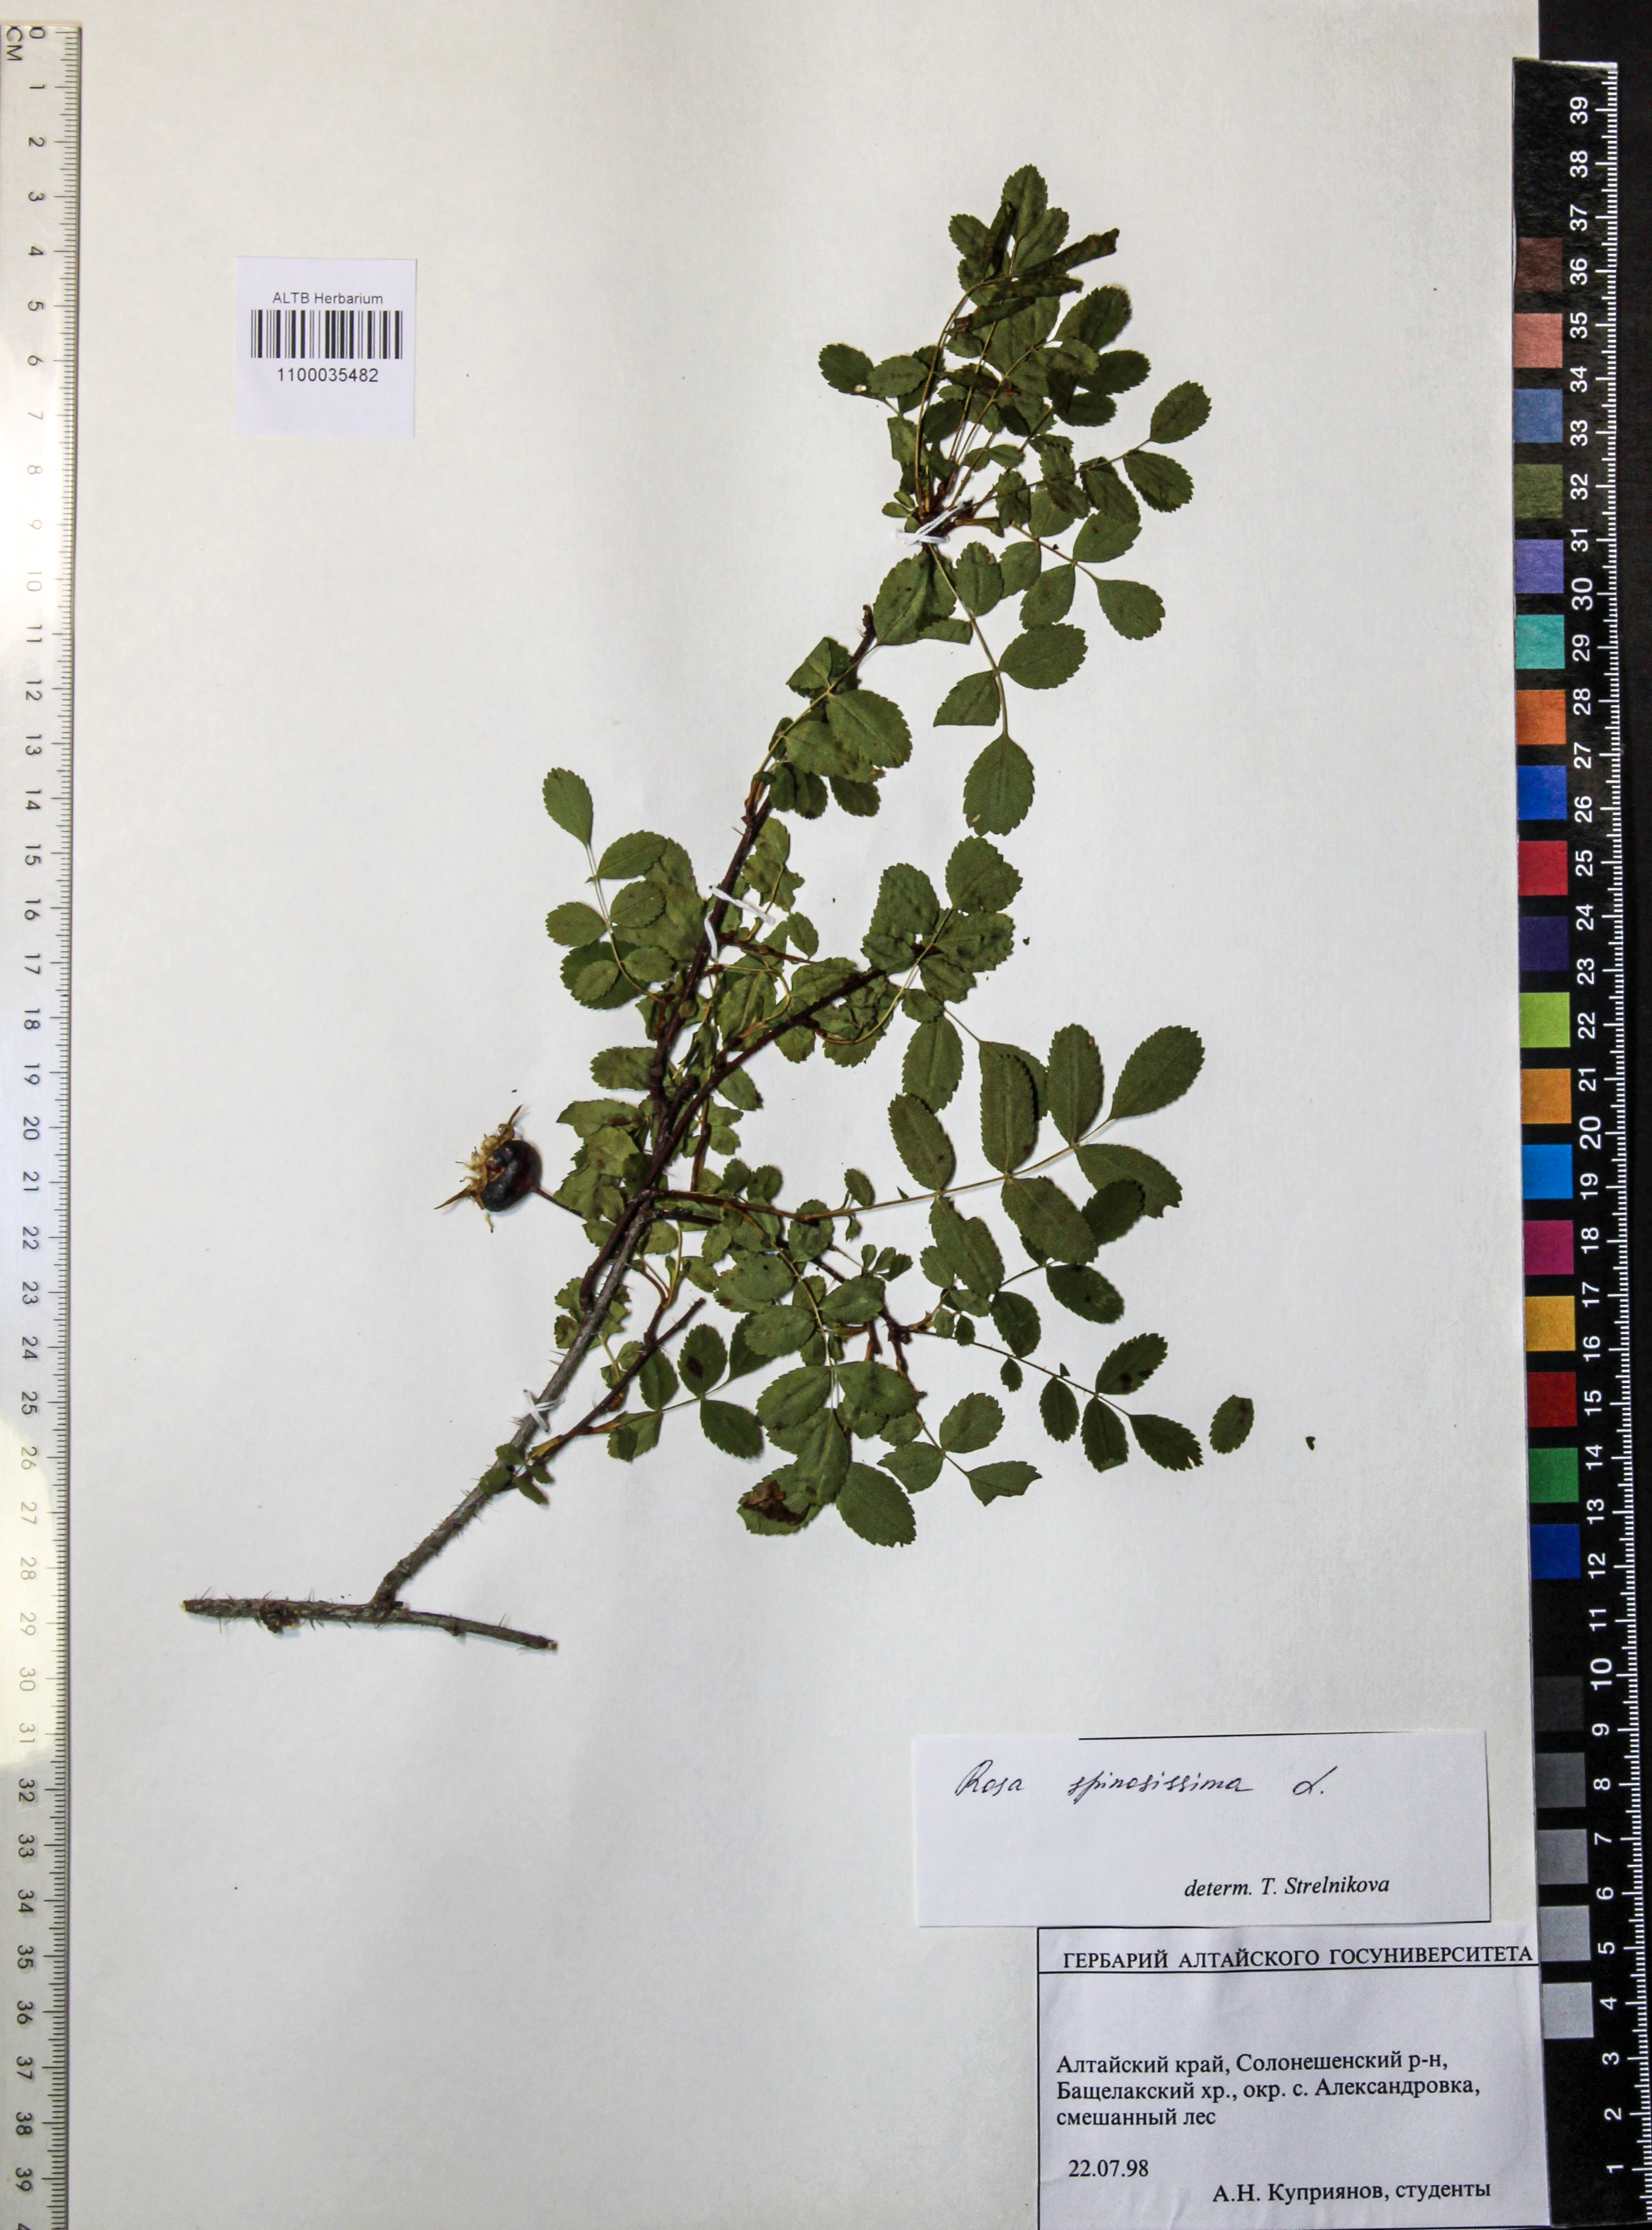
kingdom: Plantae
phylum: Tracheophyta
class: Magnoliopsida
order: Rosales
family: Rosaceae
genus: Rosa
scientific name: Rosa spinosissima
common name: Burnet rose
